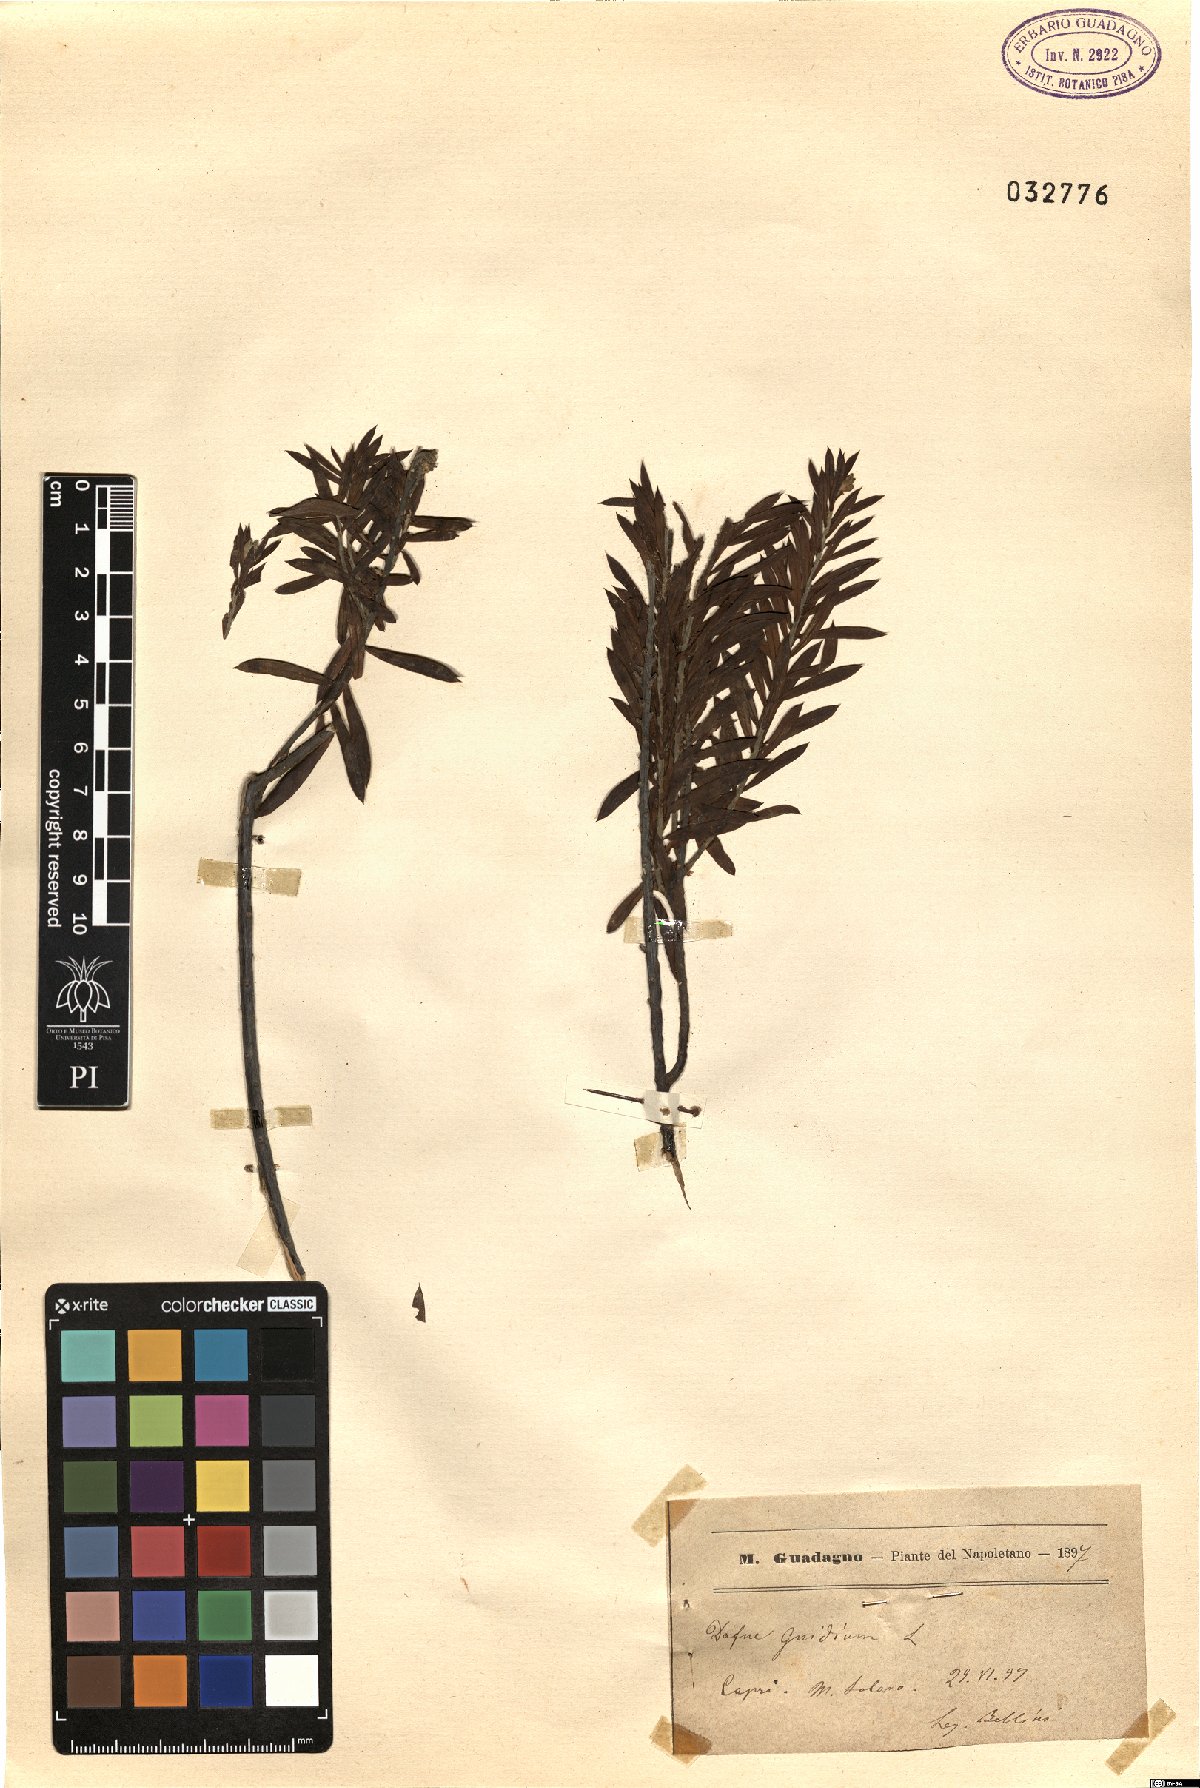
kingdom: Plantae
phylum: Tracheophyta
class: Magnoliopsida
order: Malvales
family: Thymelaeaceae
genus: Daphne
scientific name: Daphne gnidium
